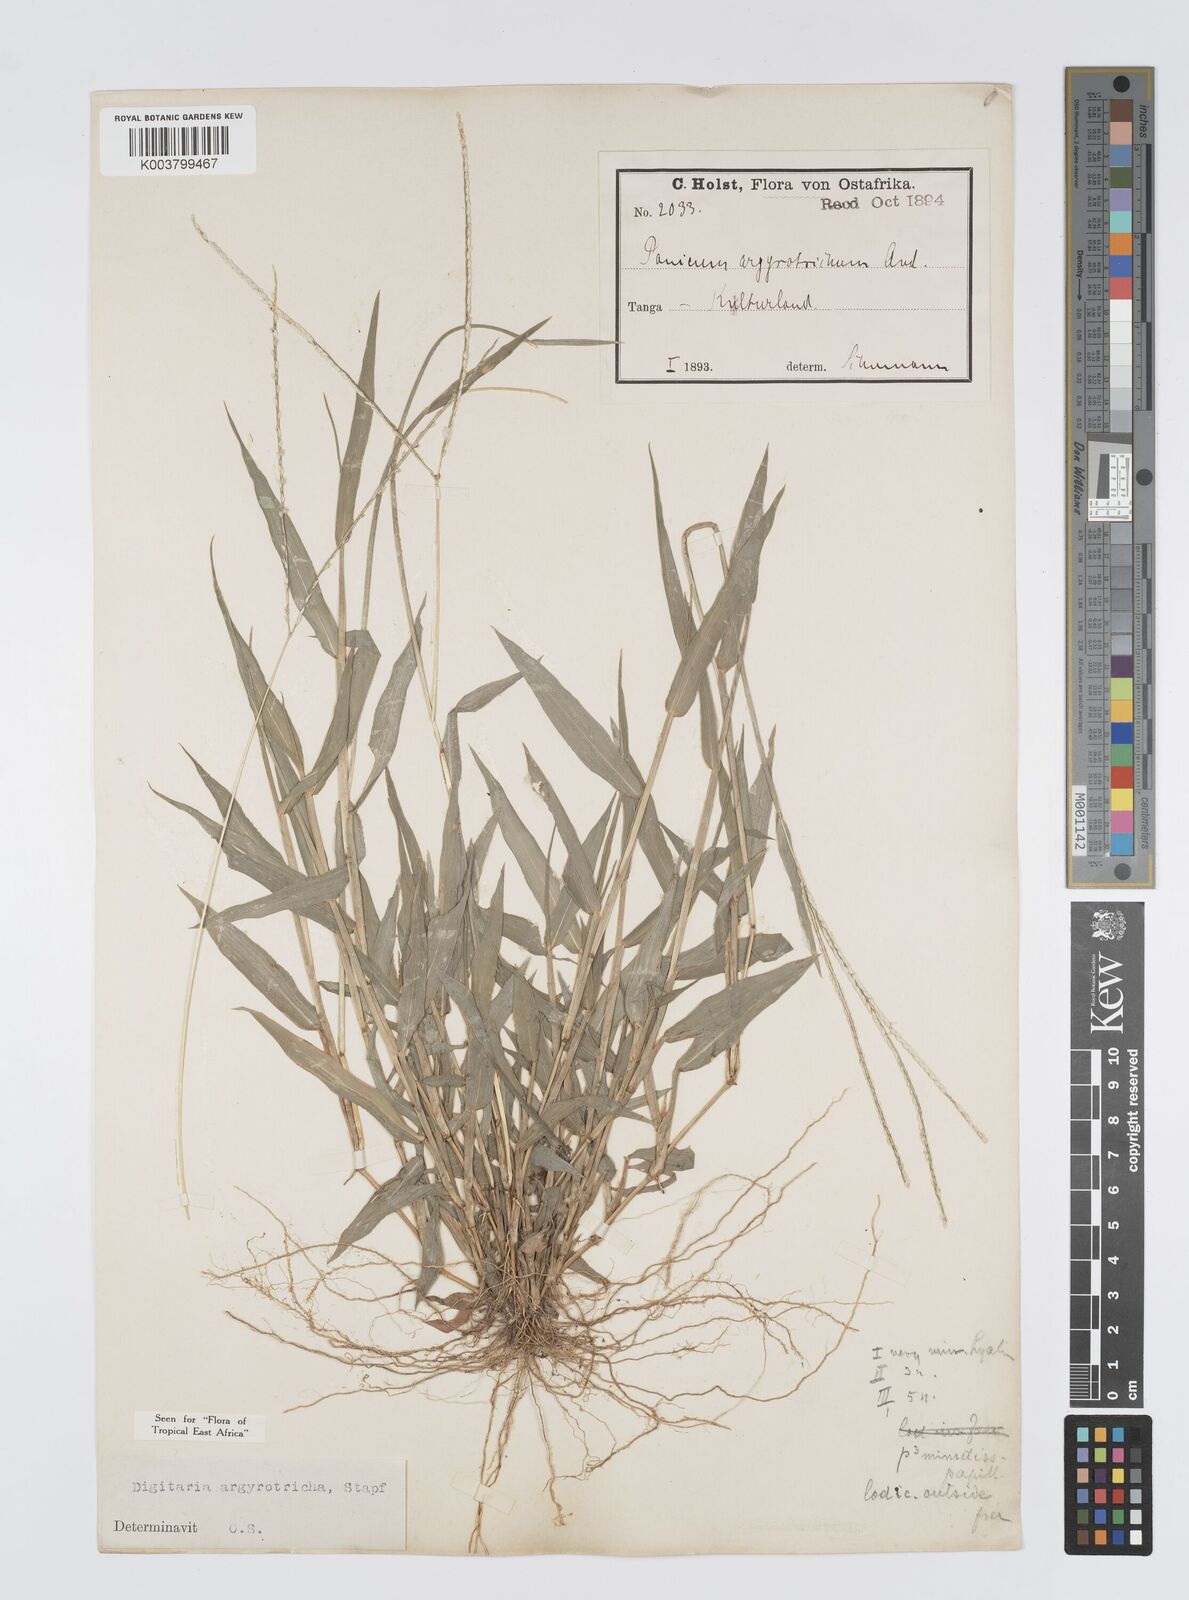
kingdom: Plantae
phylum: Tracheophyta
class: Liliopsida
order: Poales
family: Poaceae
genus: Digitaria
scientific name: Digitaria argyrotricha
